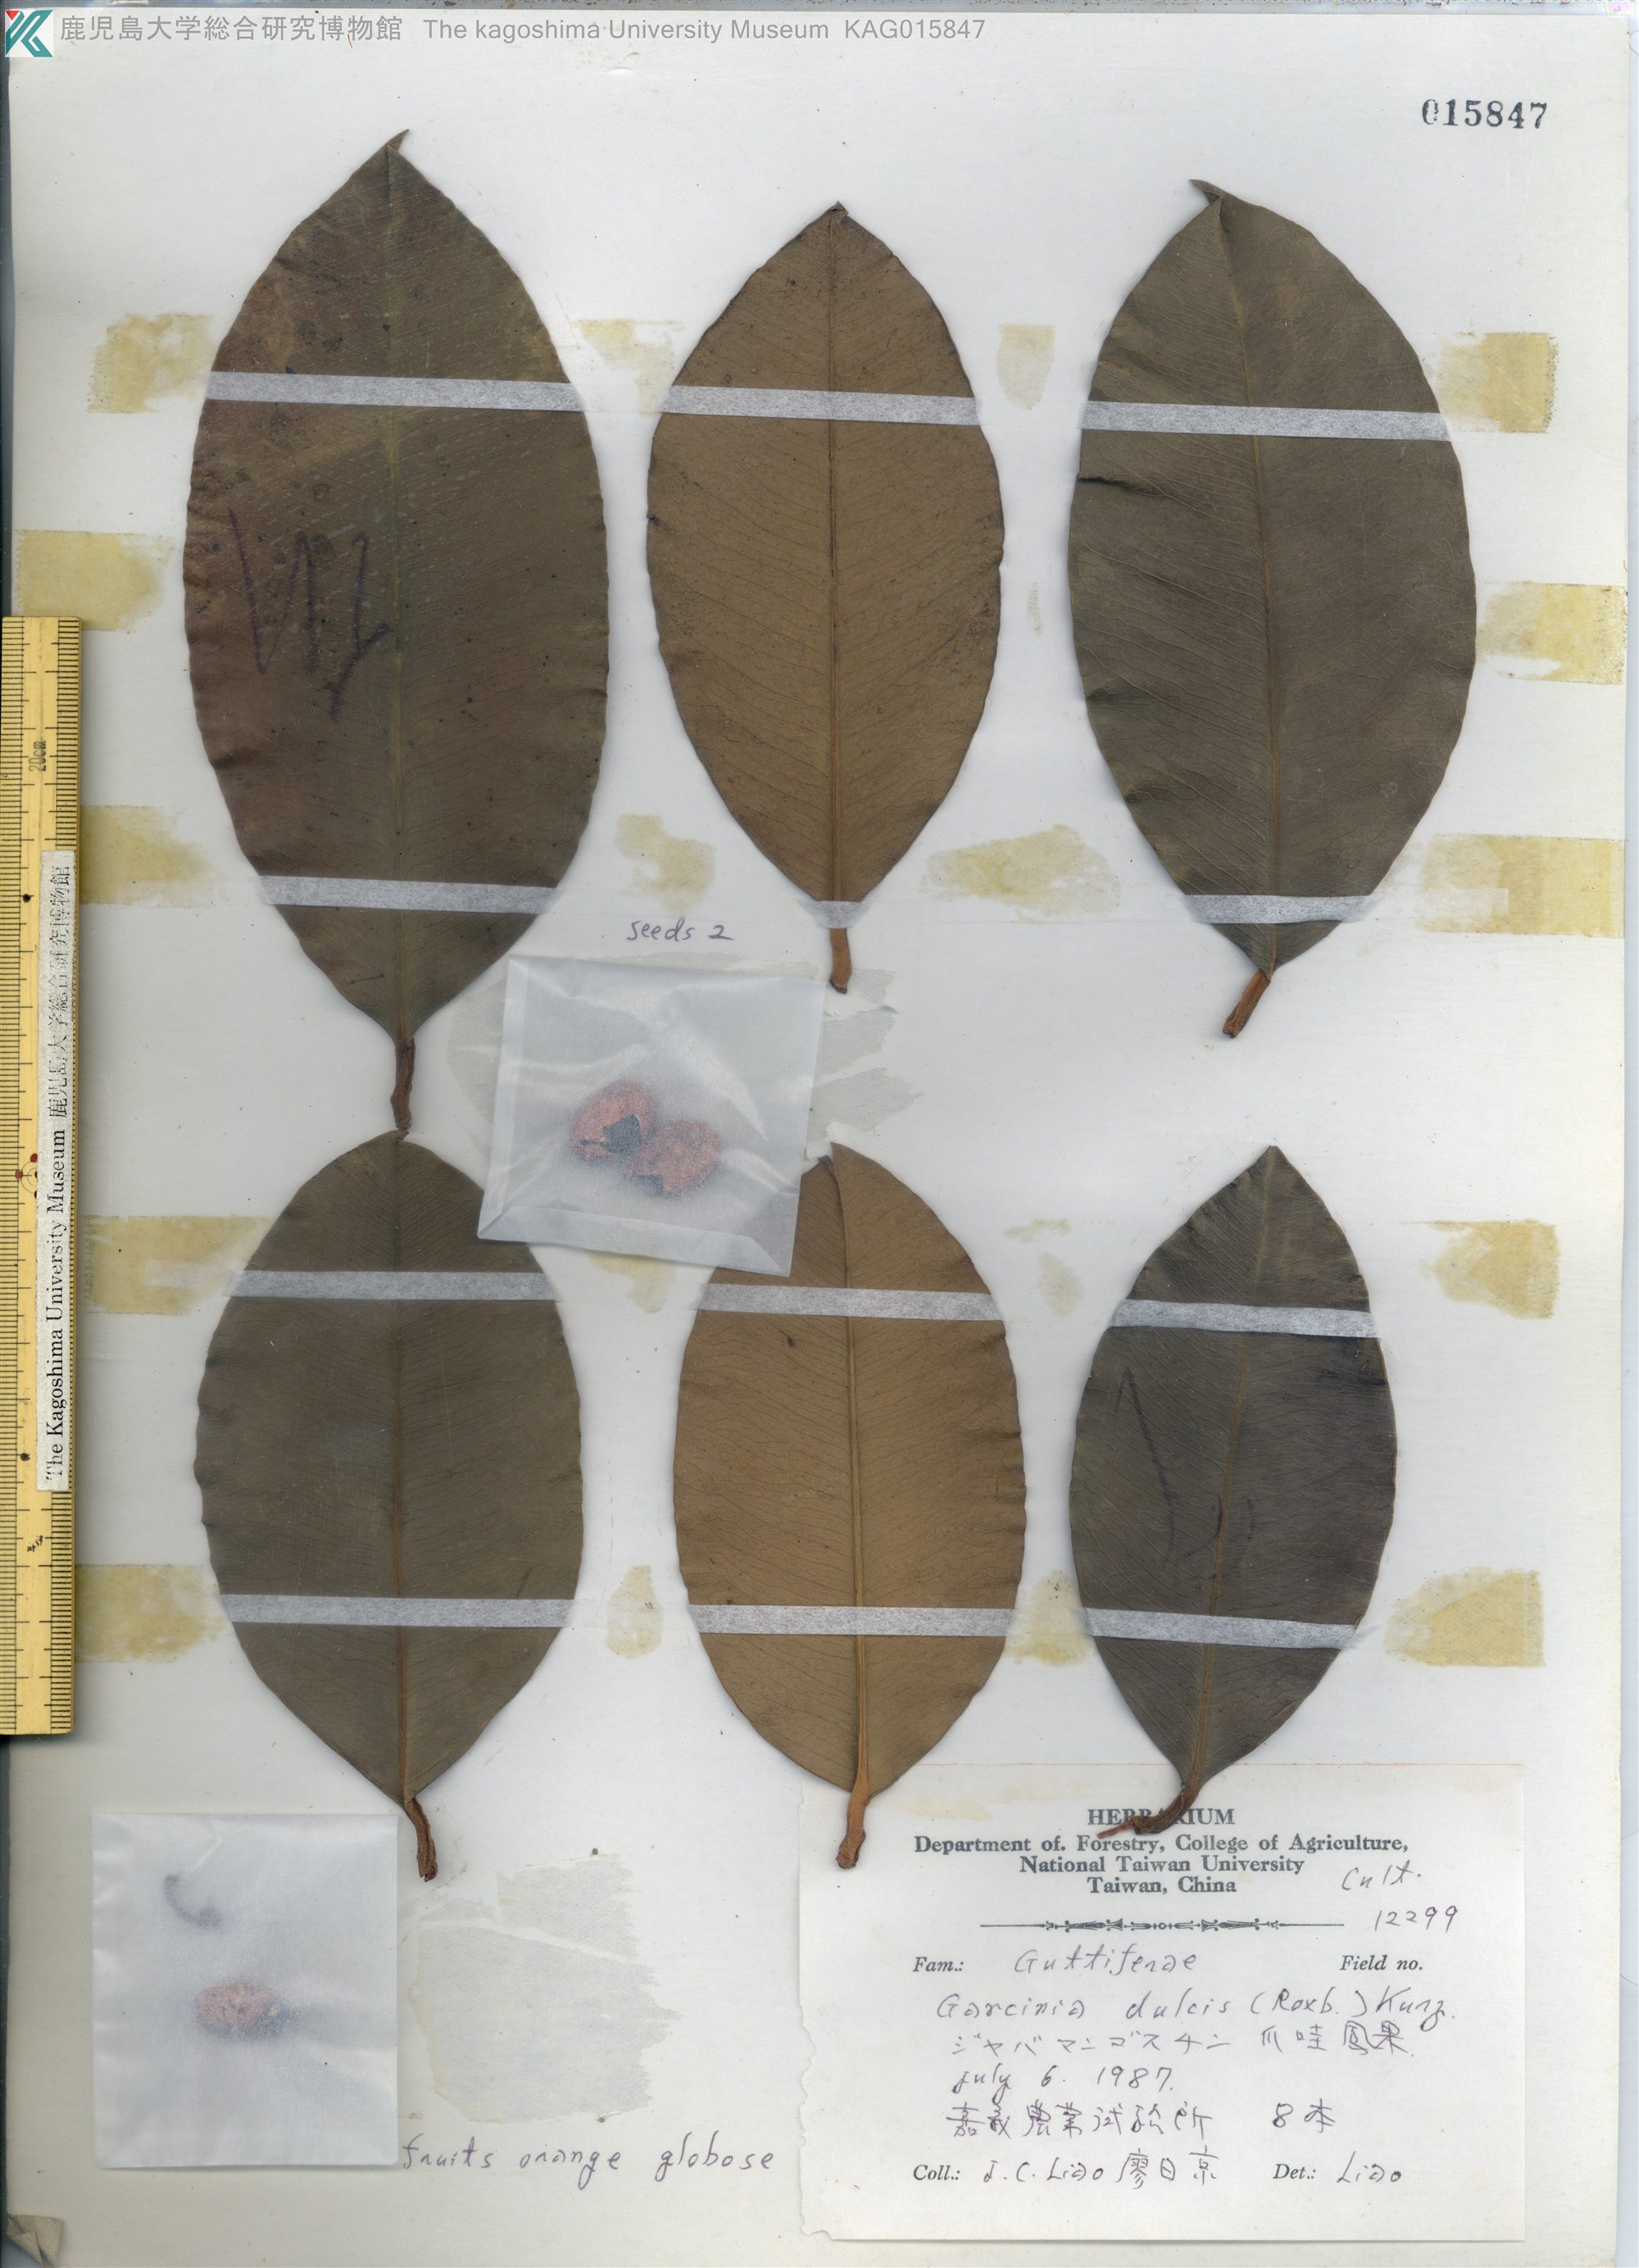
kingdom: Plantae
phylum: Tracheophyta
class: Magnoliopsida
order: Malpighiales
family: Clusiaceae
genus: Garcinia
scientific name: Garcinia dulcis
